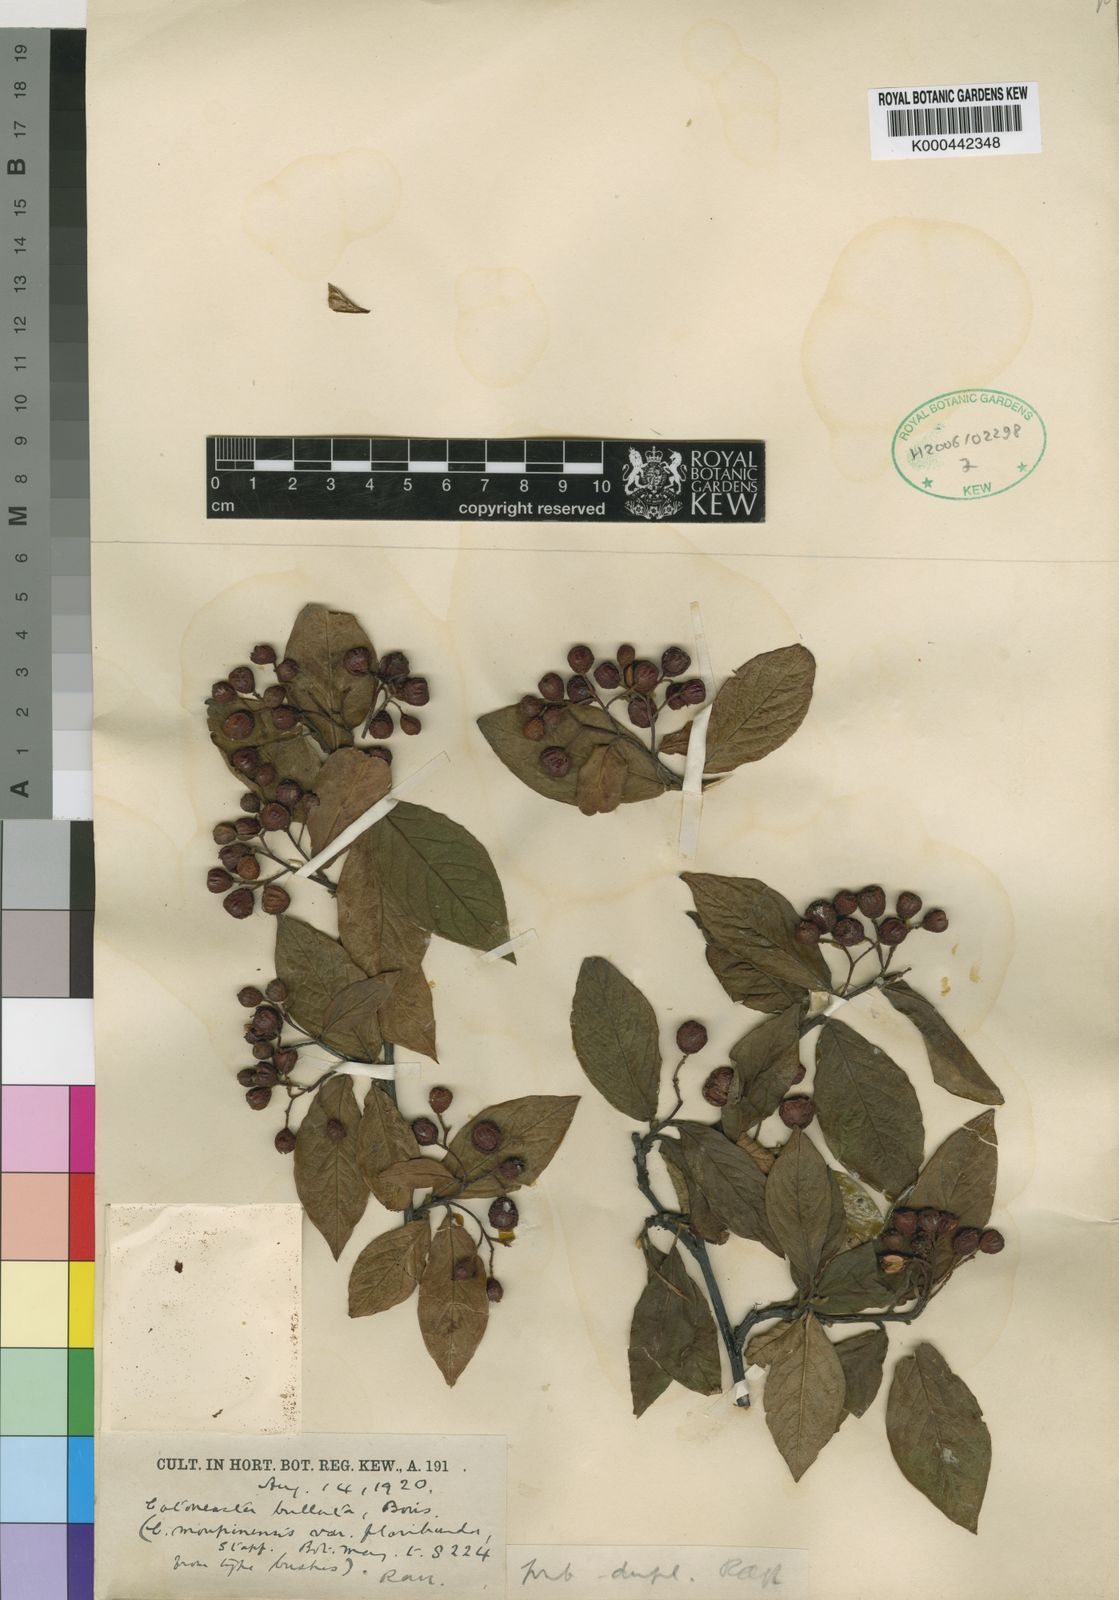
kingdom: Plantae
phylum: Tracheophyta
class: Magnoliopsida
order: Rosales
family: Rosaceae
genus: Cotoneaster
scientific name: Cotoneaster bullatus
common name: Hollyberry cotoneaster
